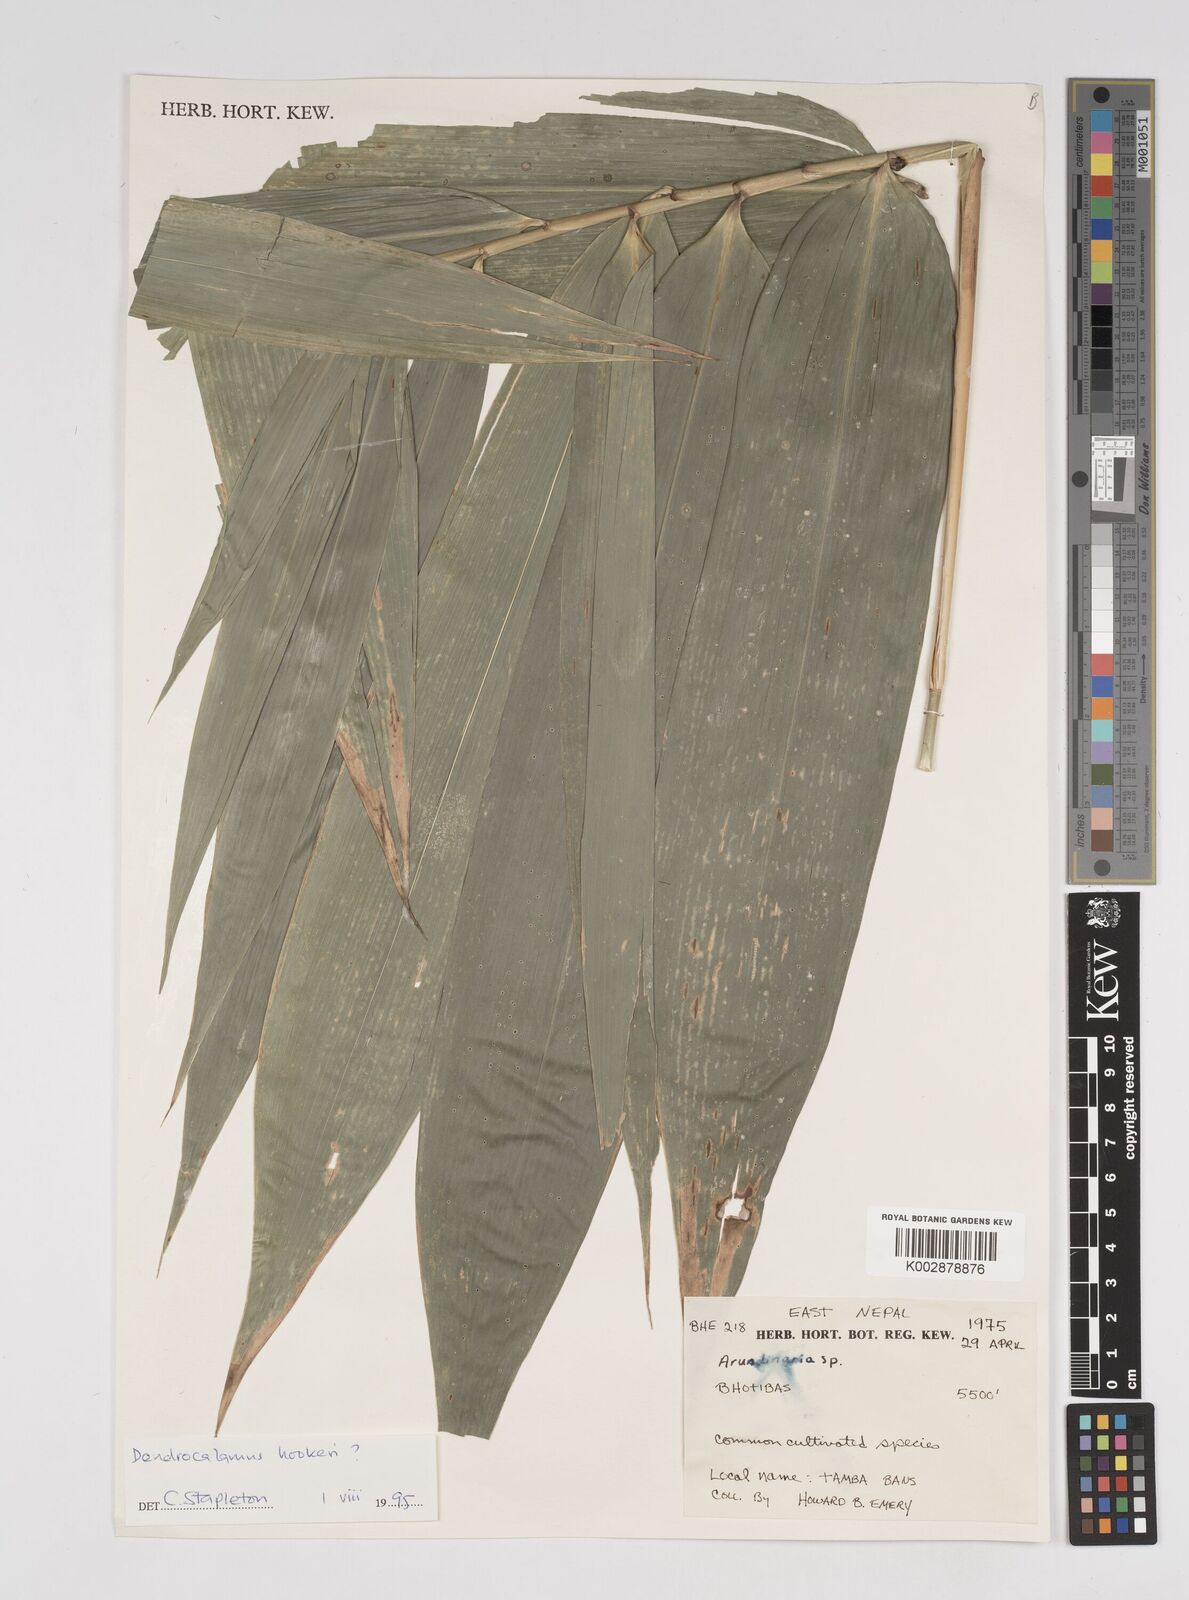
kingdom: Plantae
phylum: Tracheophyta
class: Liliopsida
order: Poales
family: Poaceae
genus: Dendrocalamus
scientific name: Dendrocalamus hookeri
